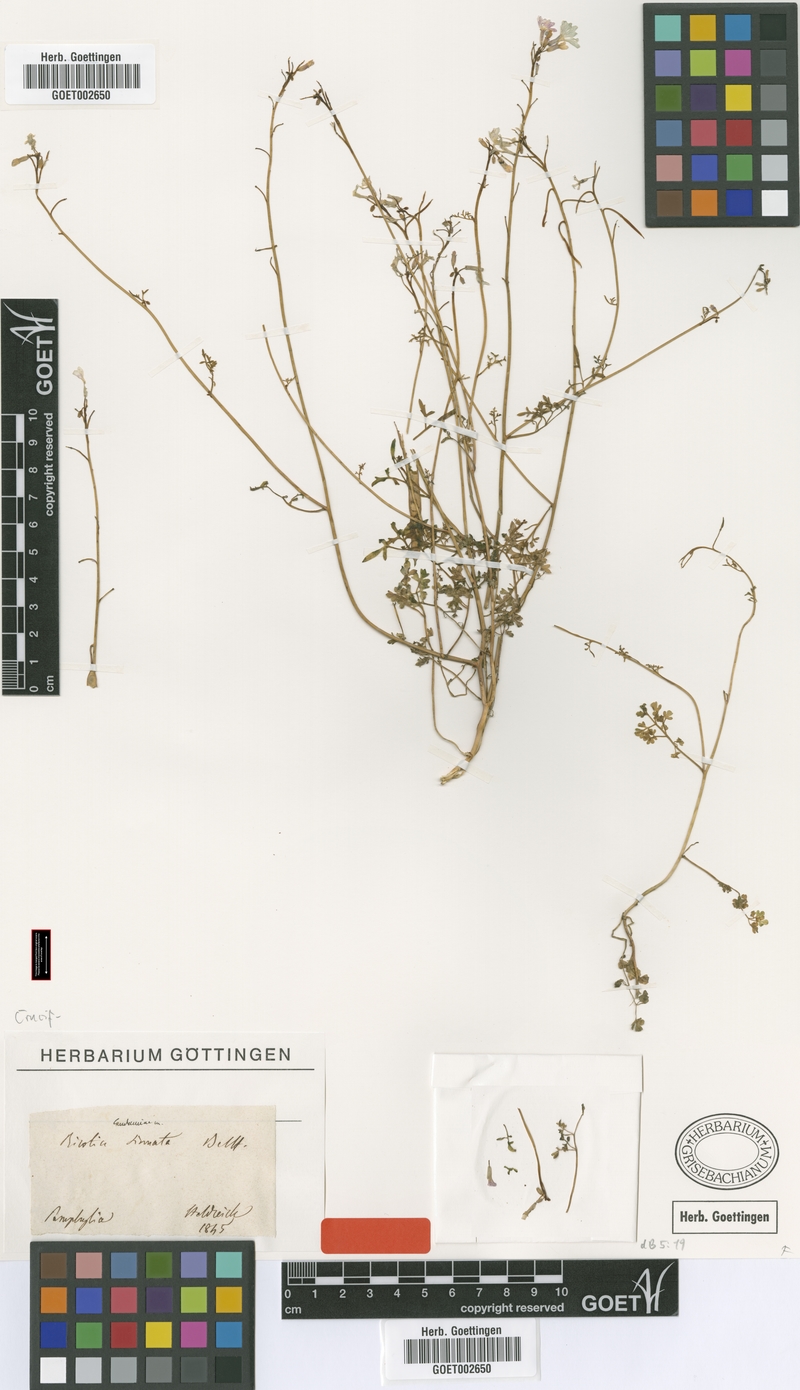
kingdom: Plantae
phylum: Tracheophyta
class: Magnoliopsida
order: Brassicales
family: Brassicaceae
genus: Ricotia
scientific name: Ricotia sinuata
